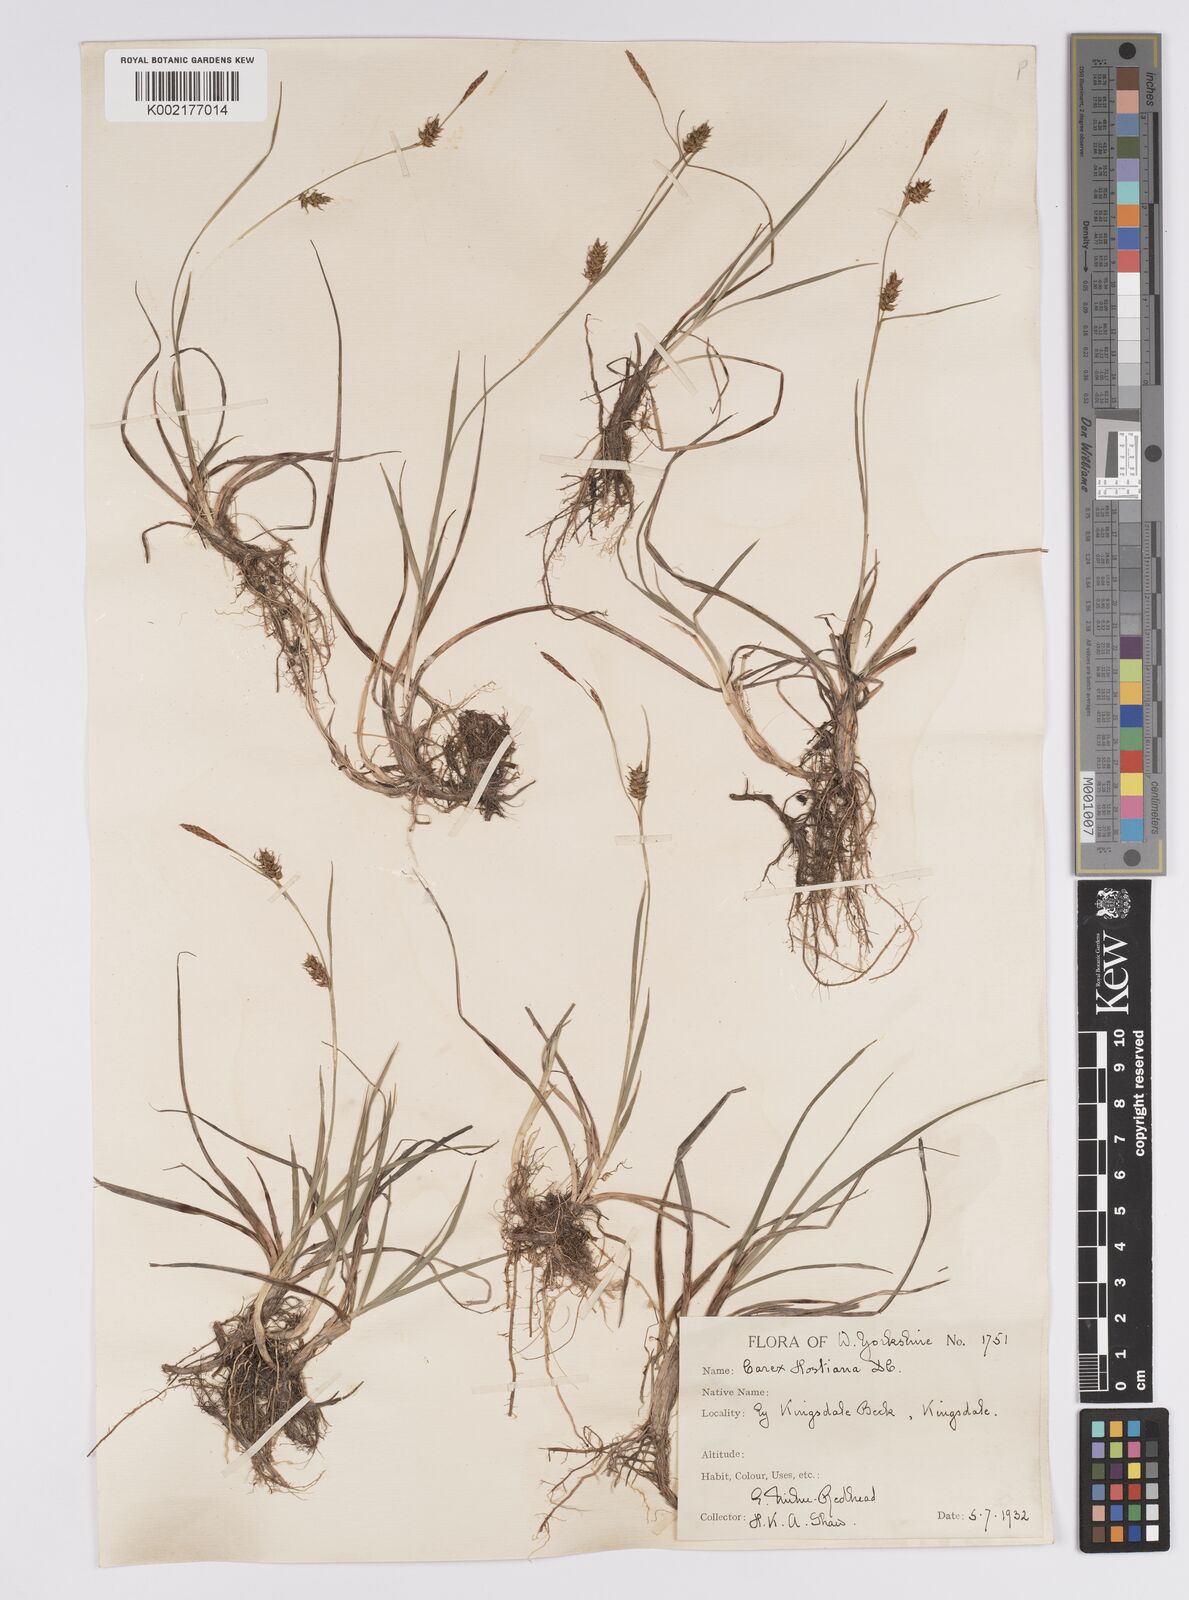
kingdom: Plantae
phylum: Tracheophyta
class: Liliopsida
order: Poales
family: Cyperaceae
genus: Carex
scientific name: Carex hostiana
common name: Tawny sedge
